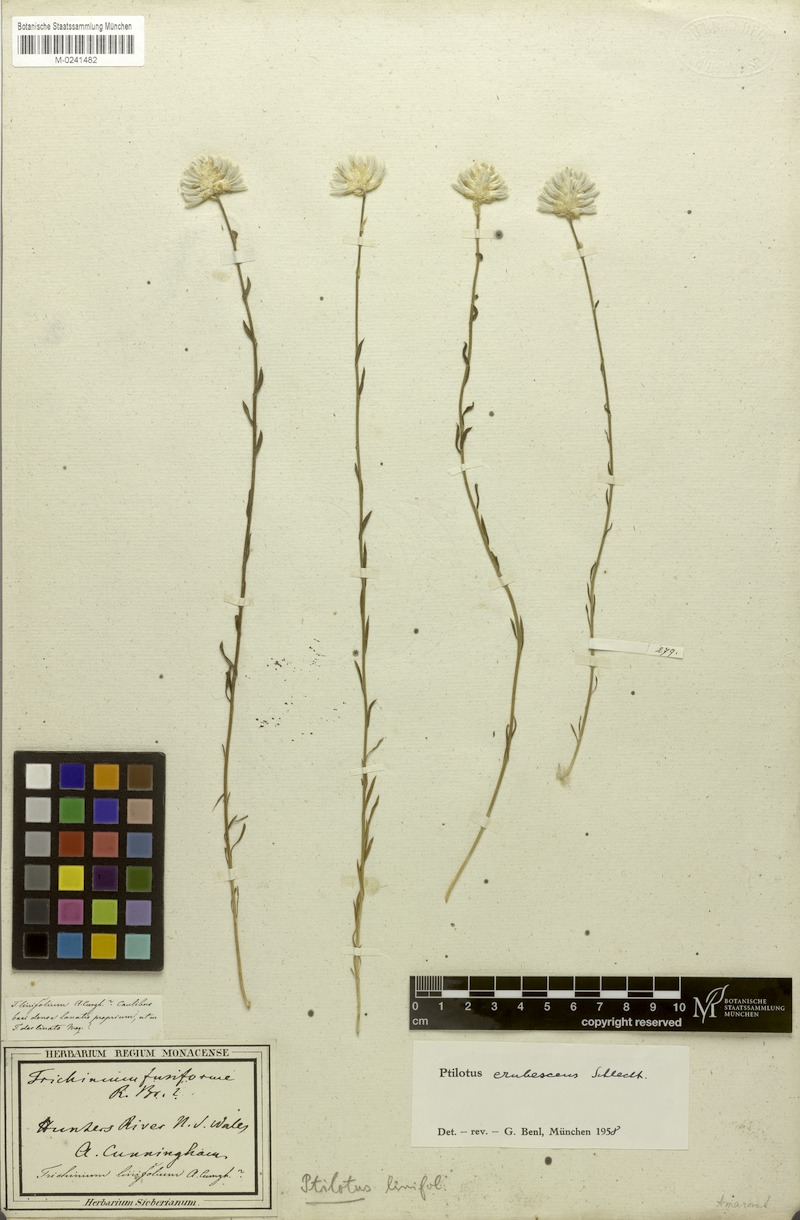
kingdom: Plantae
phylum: Tracheophyta
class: Magnoliopsida
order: Caryophyllales
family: Amaranthaceae
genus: Ptilotus
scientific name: Ptilotus erubescens
